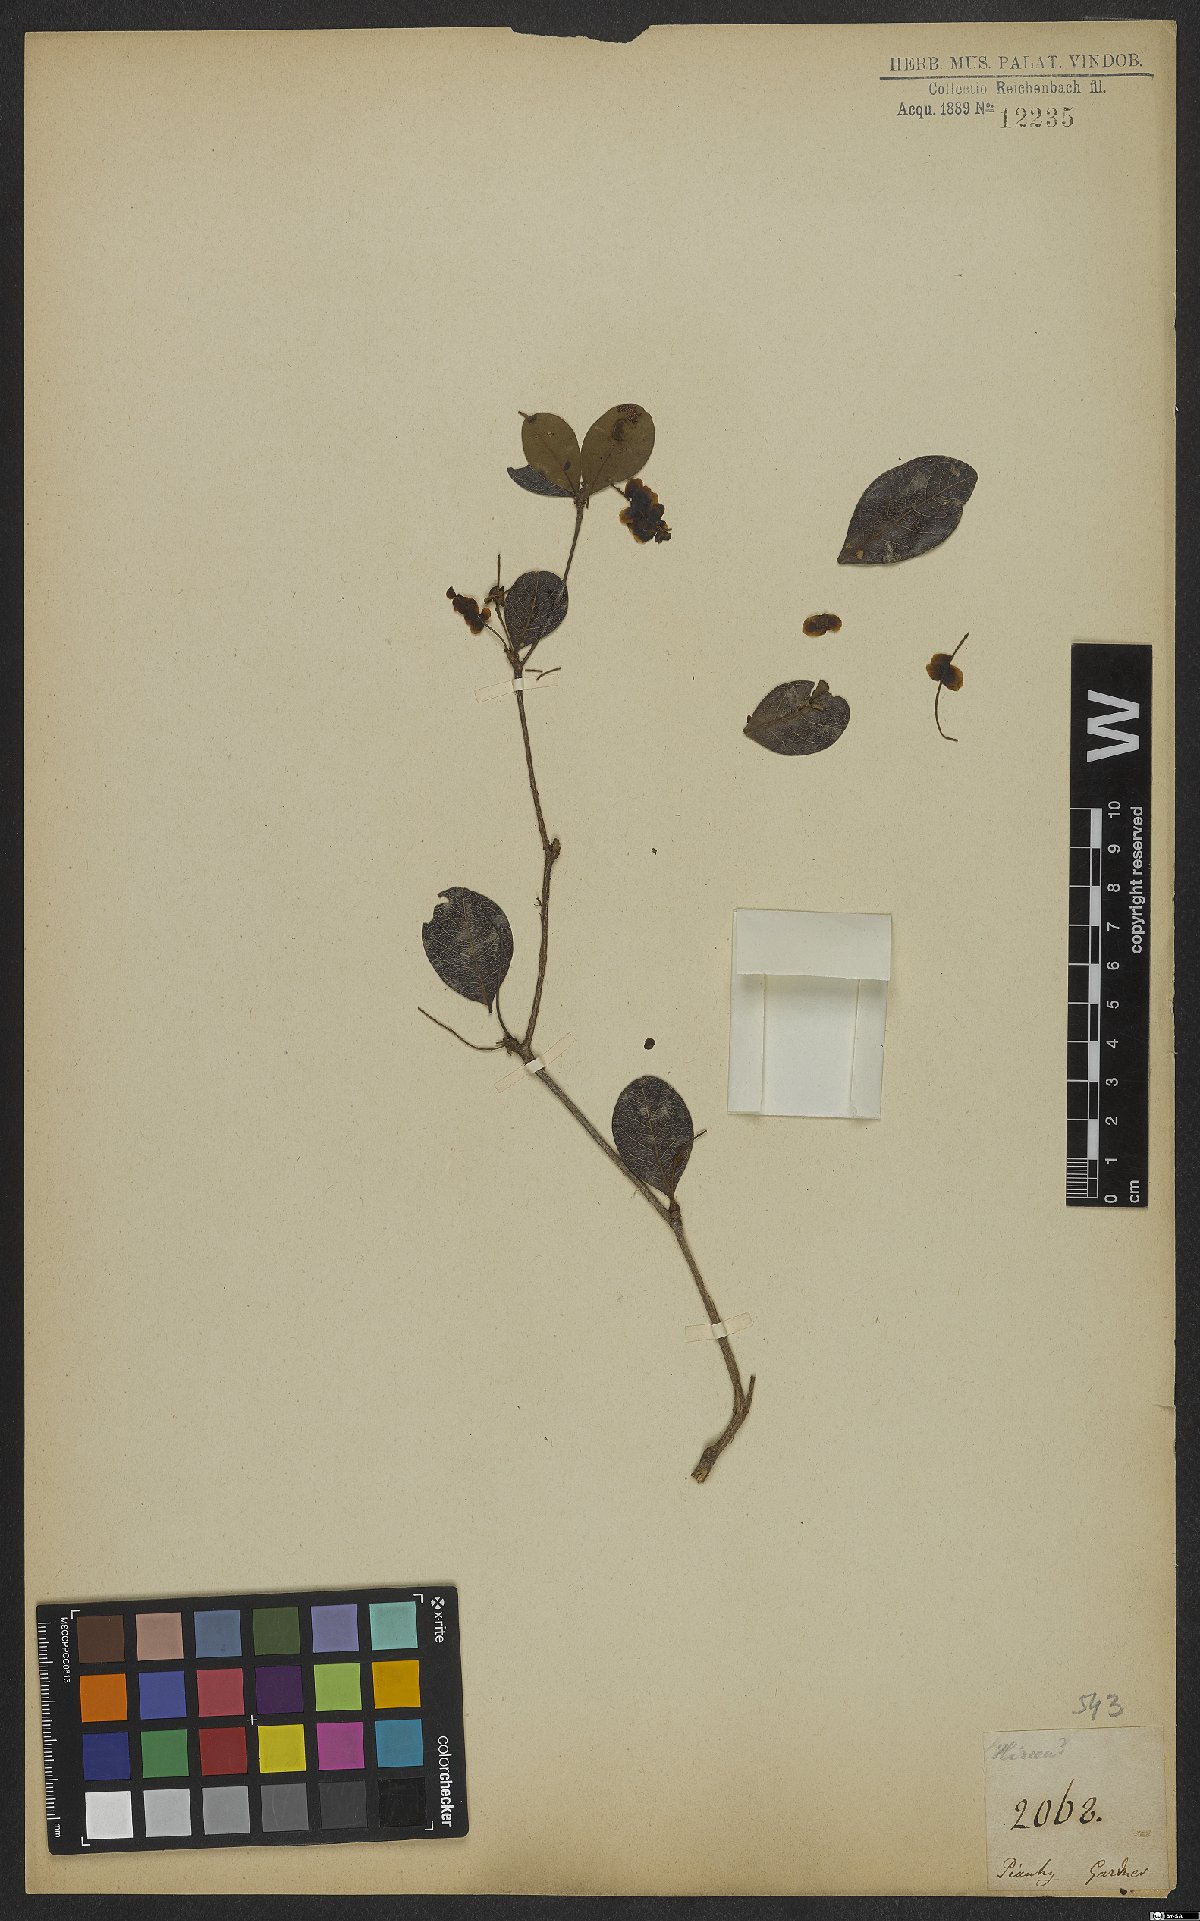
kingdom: Plantae
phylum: Tracheophyta
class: Magnoliopsida
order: Malpighiales
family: Malpighiaceae
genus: Hiraea
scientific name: Hiraea
